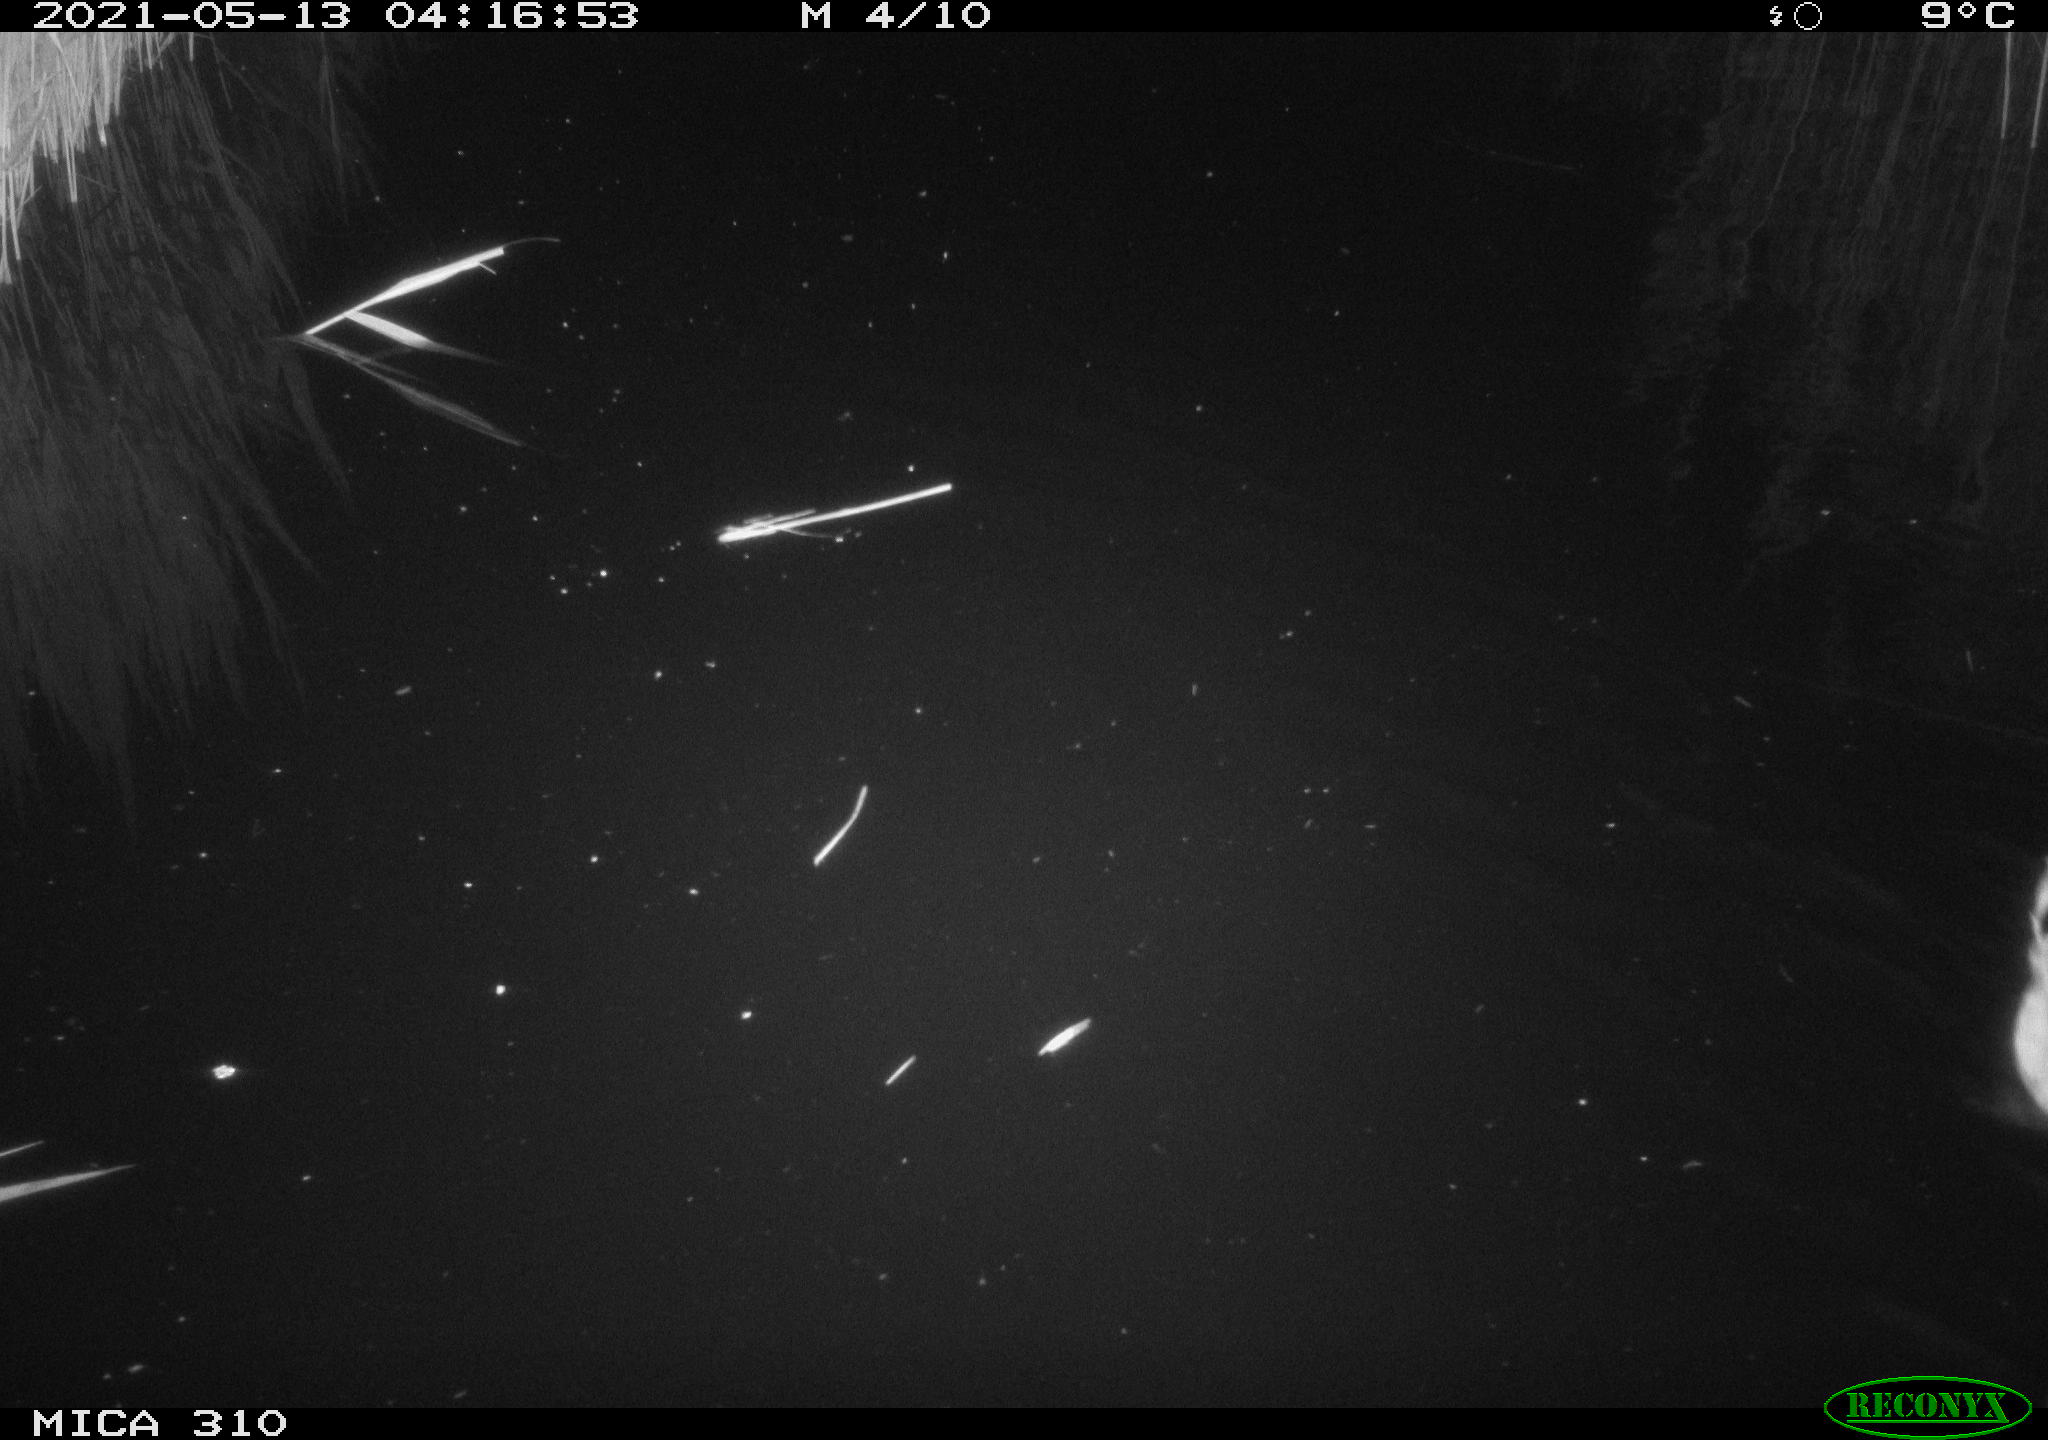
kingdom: Animalia
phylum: Chordata
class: Aves
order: Anseriformes
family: Anatidae
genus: Anas
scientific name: Anas platyrhynchos
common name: Mallard
